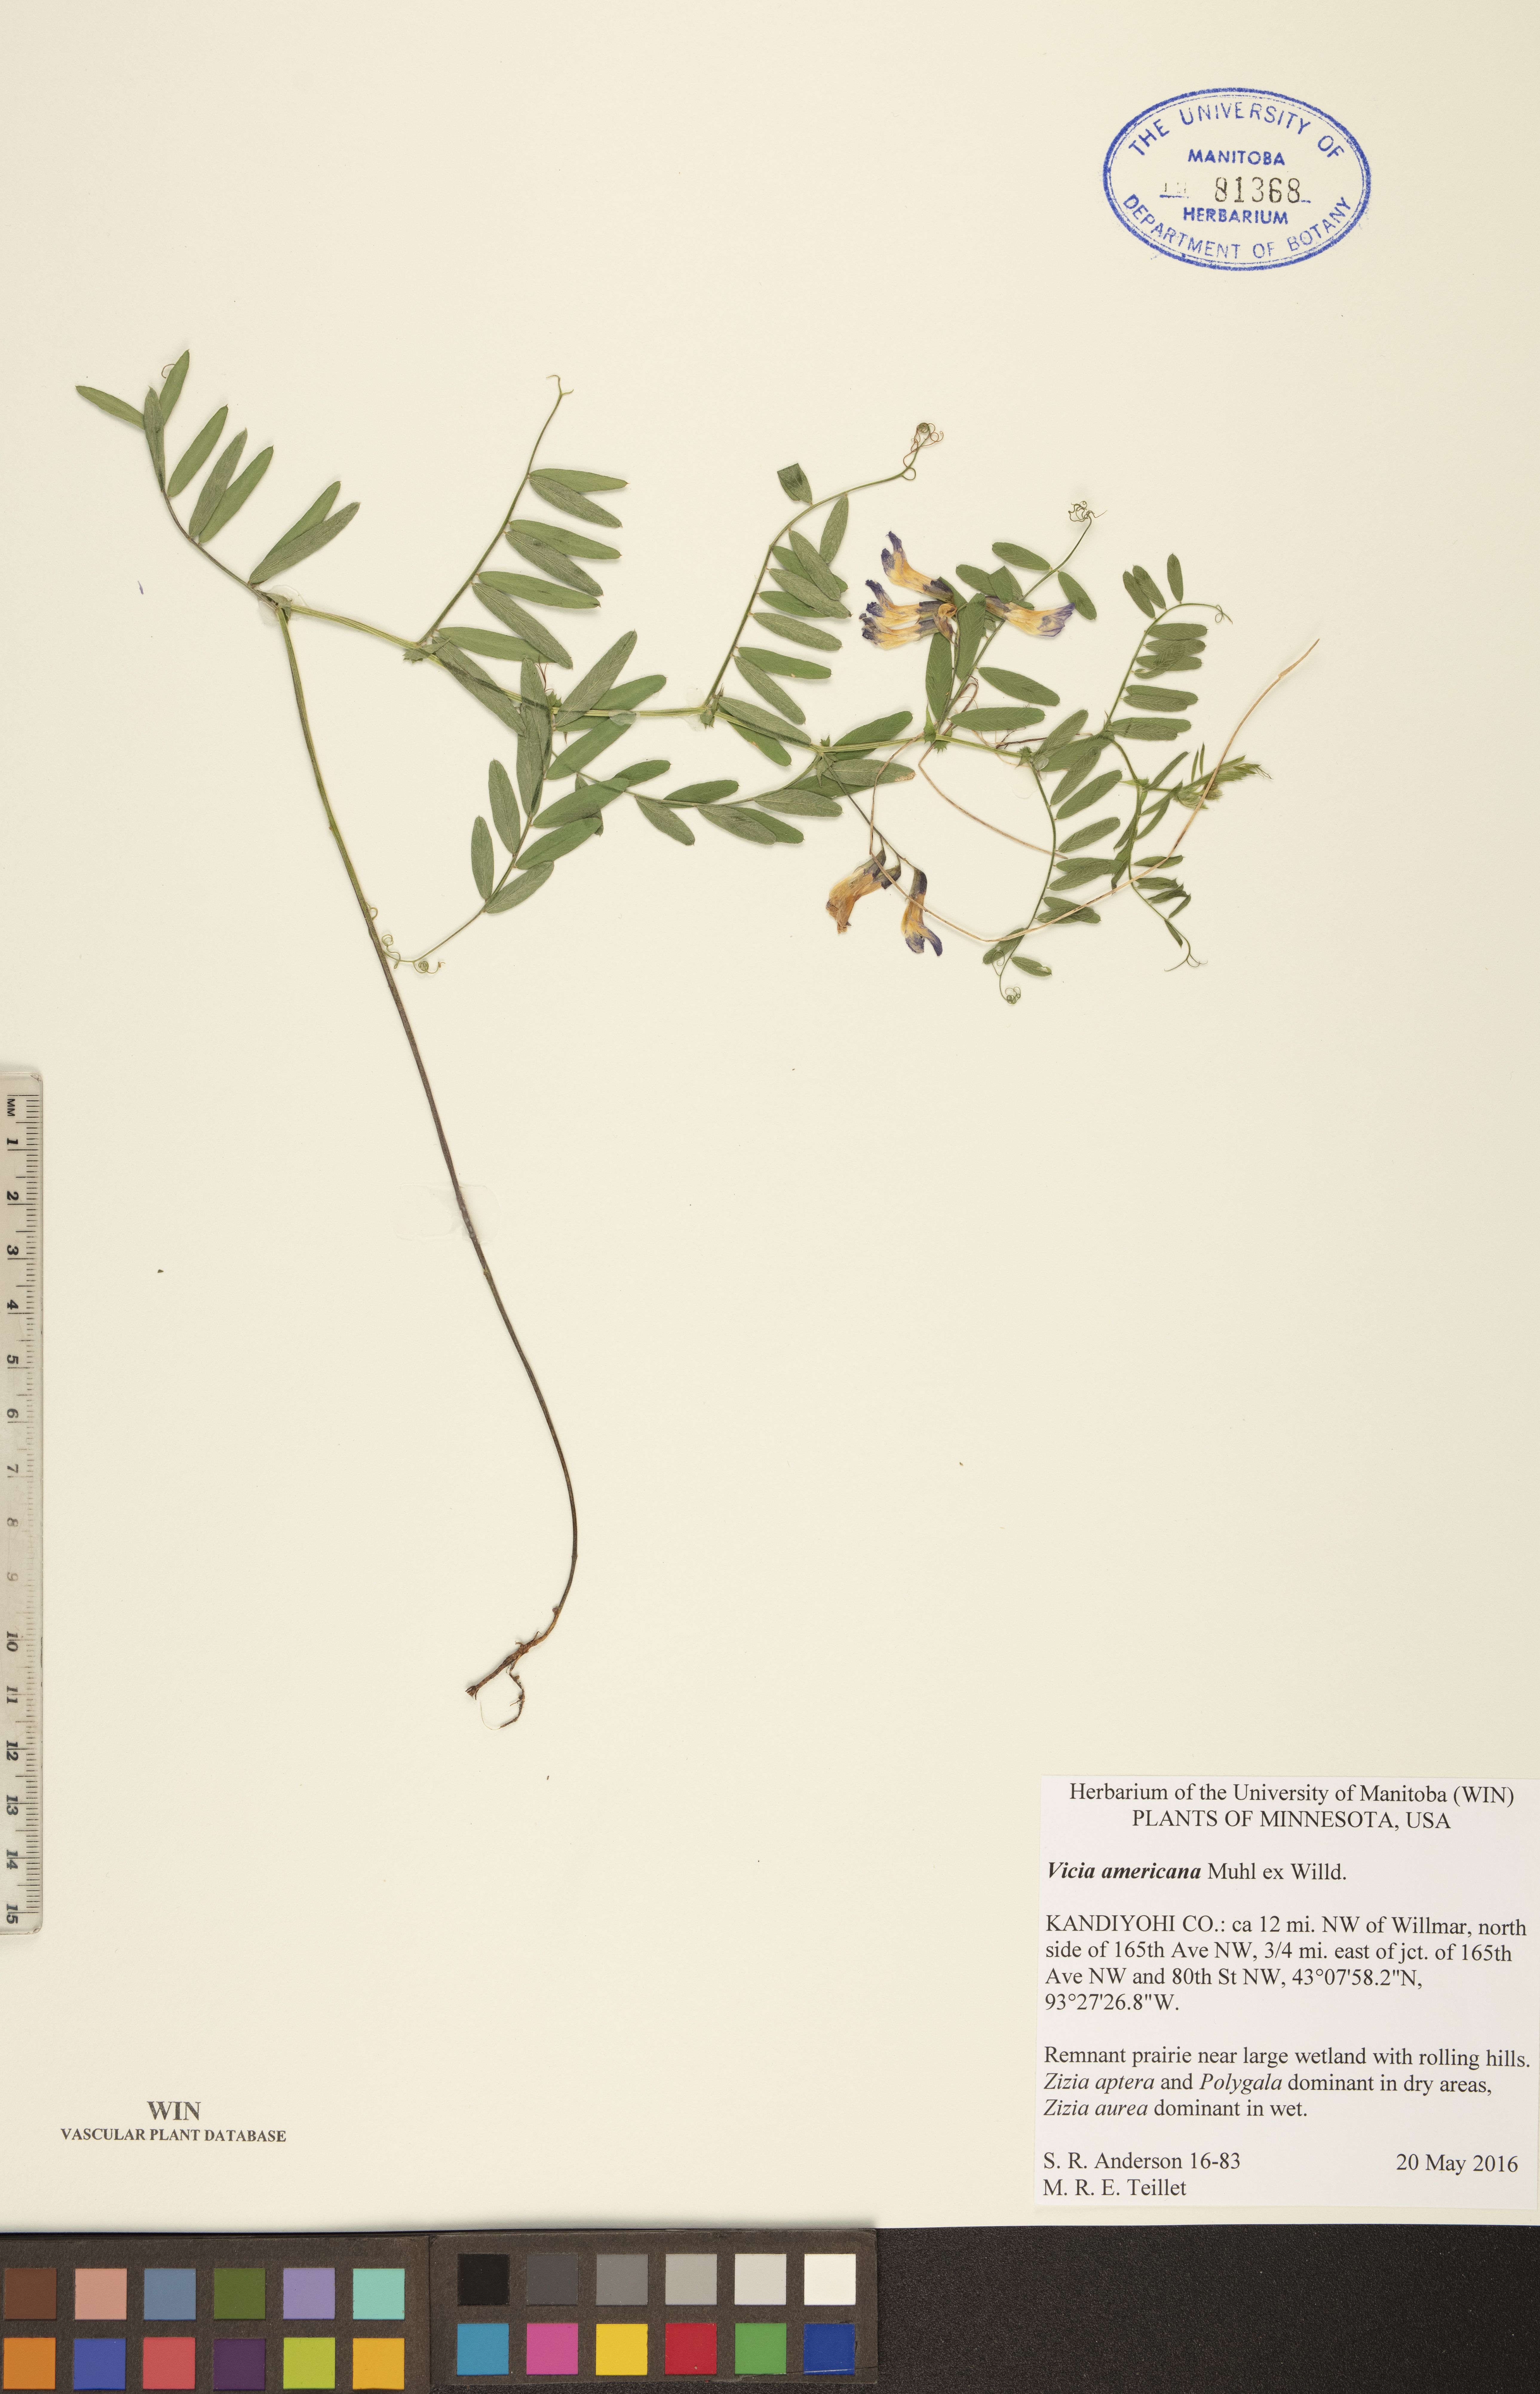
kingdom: Plantae
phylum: Tracheophyta
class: Magnoliopsida
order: Fabales
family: Fabaceae
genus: Vicia
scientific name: Vicia americana
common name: American vetch
